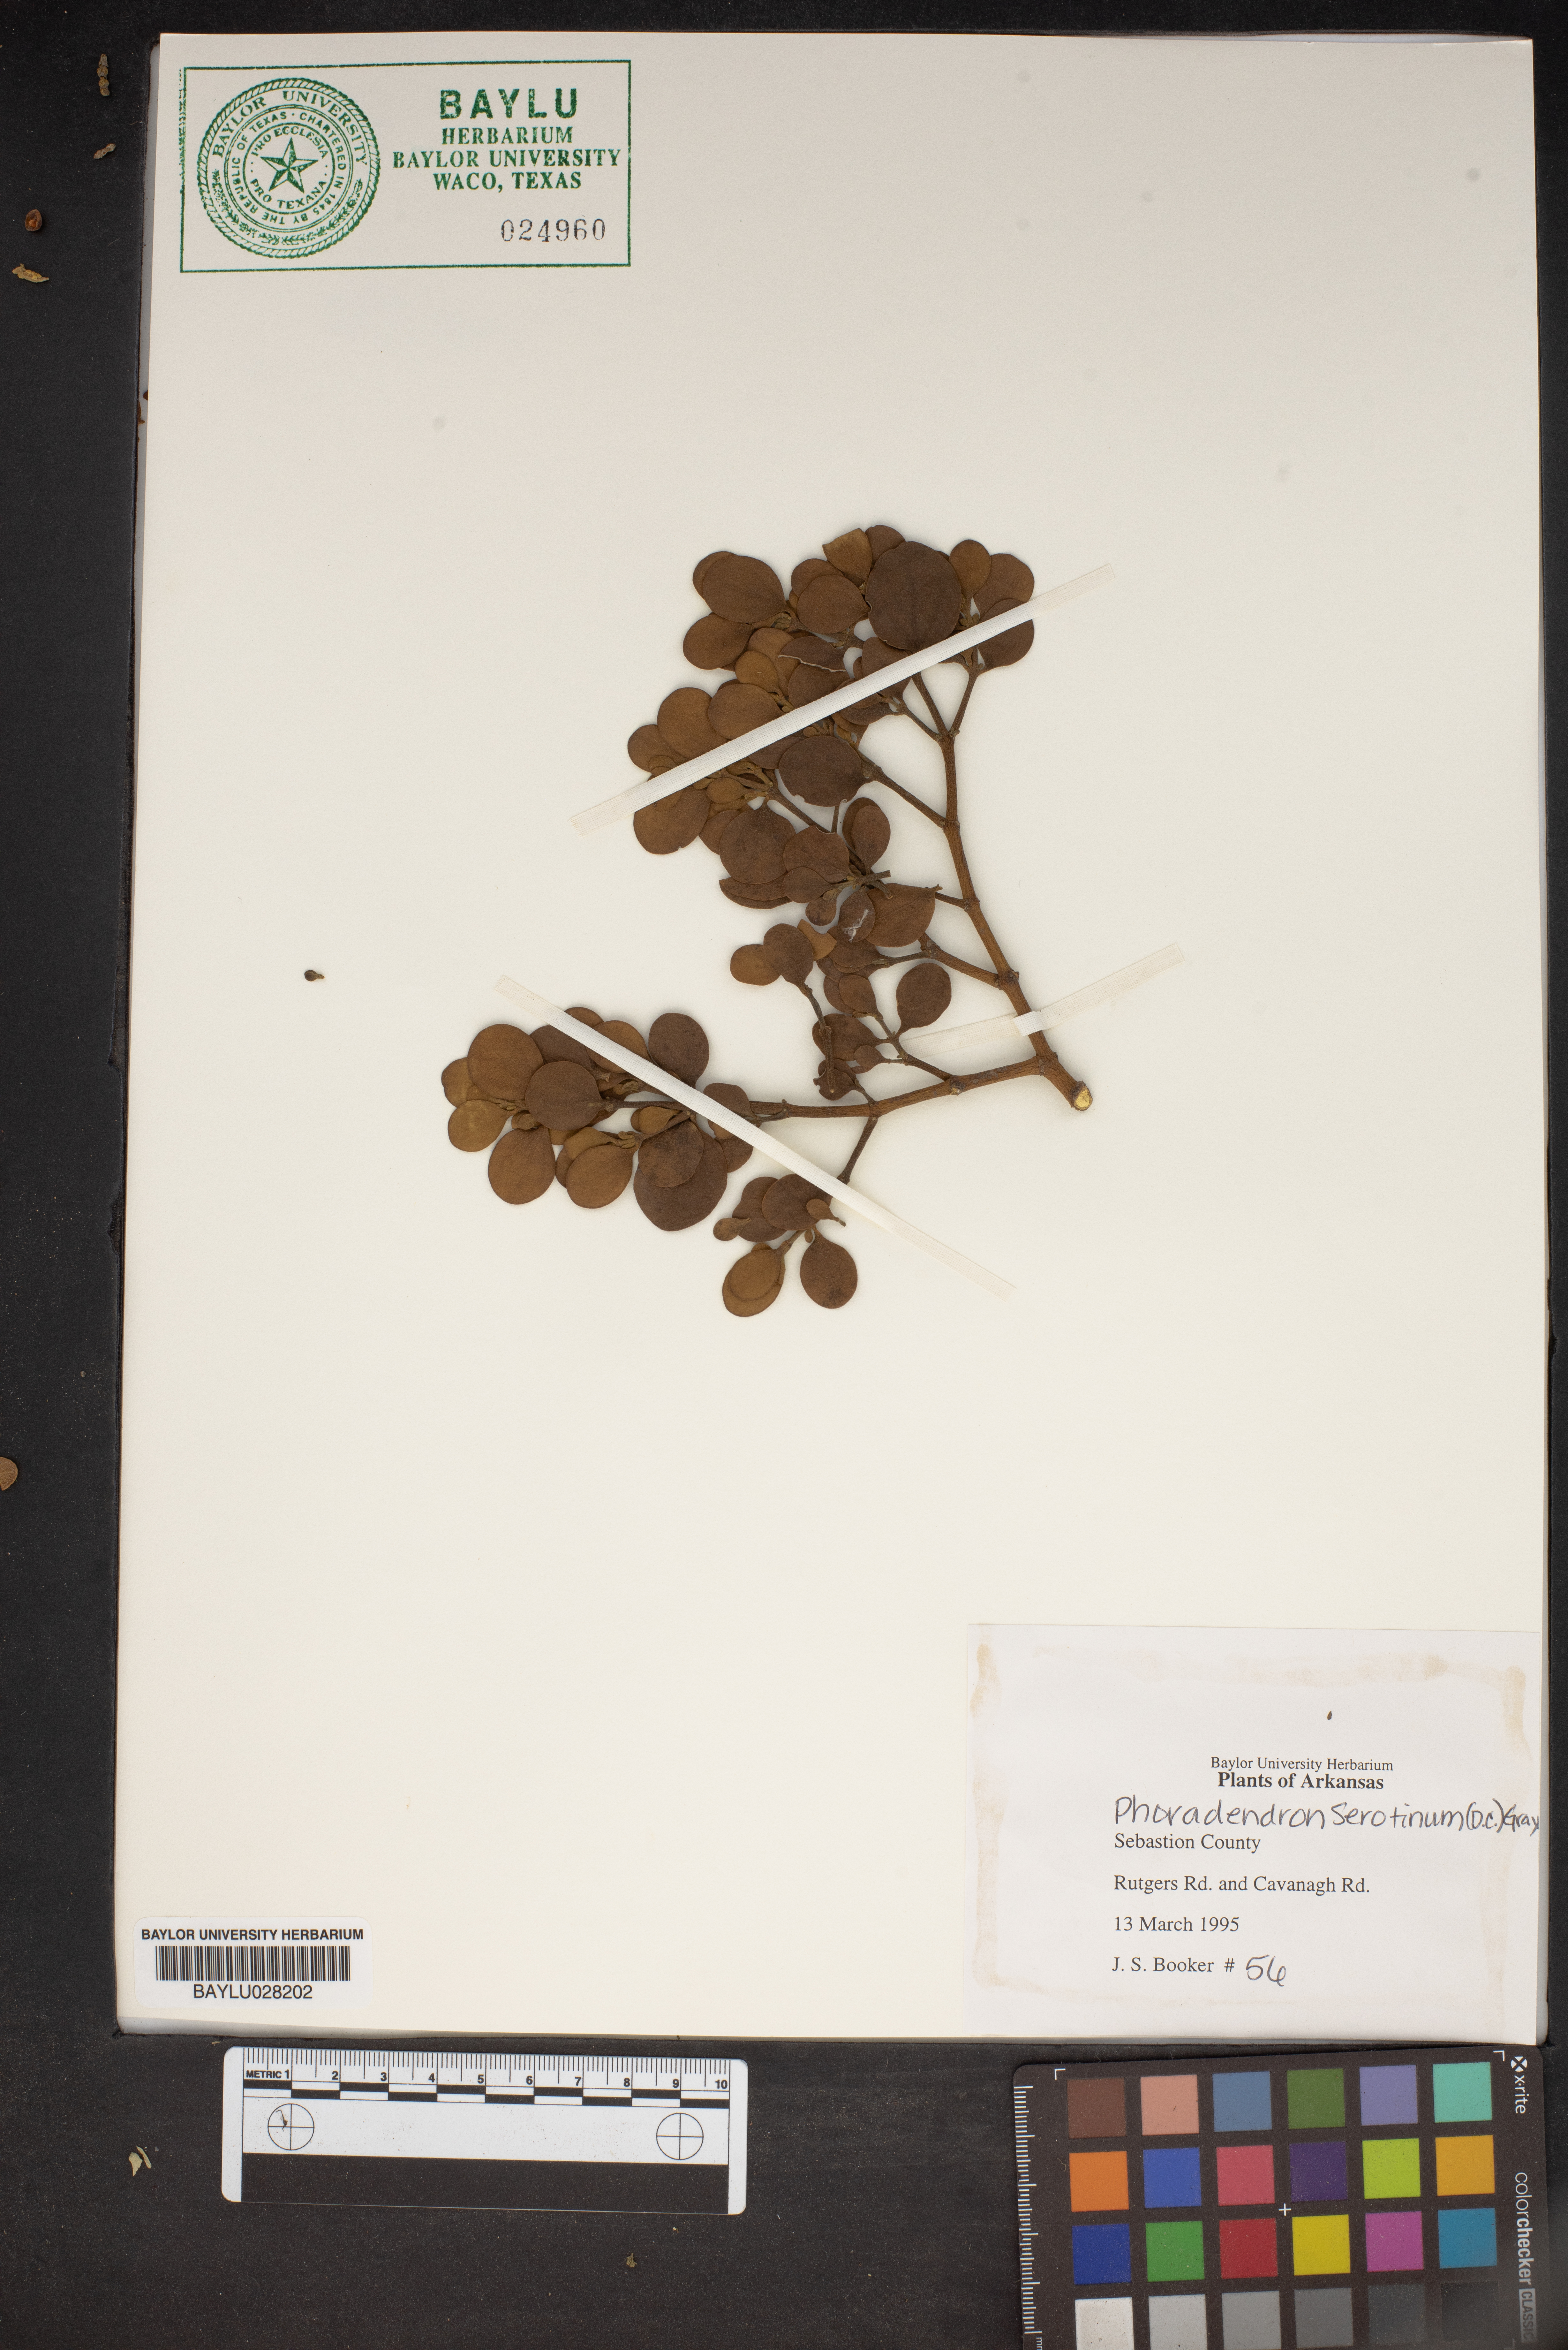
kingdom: Plantae
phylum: Tracheophyta
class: Magnoliopsida
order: Santalales
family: Viscaceae
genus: Phoradendron
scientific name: Phoradendron leucarpum
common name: Pacific mistletoe
